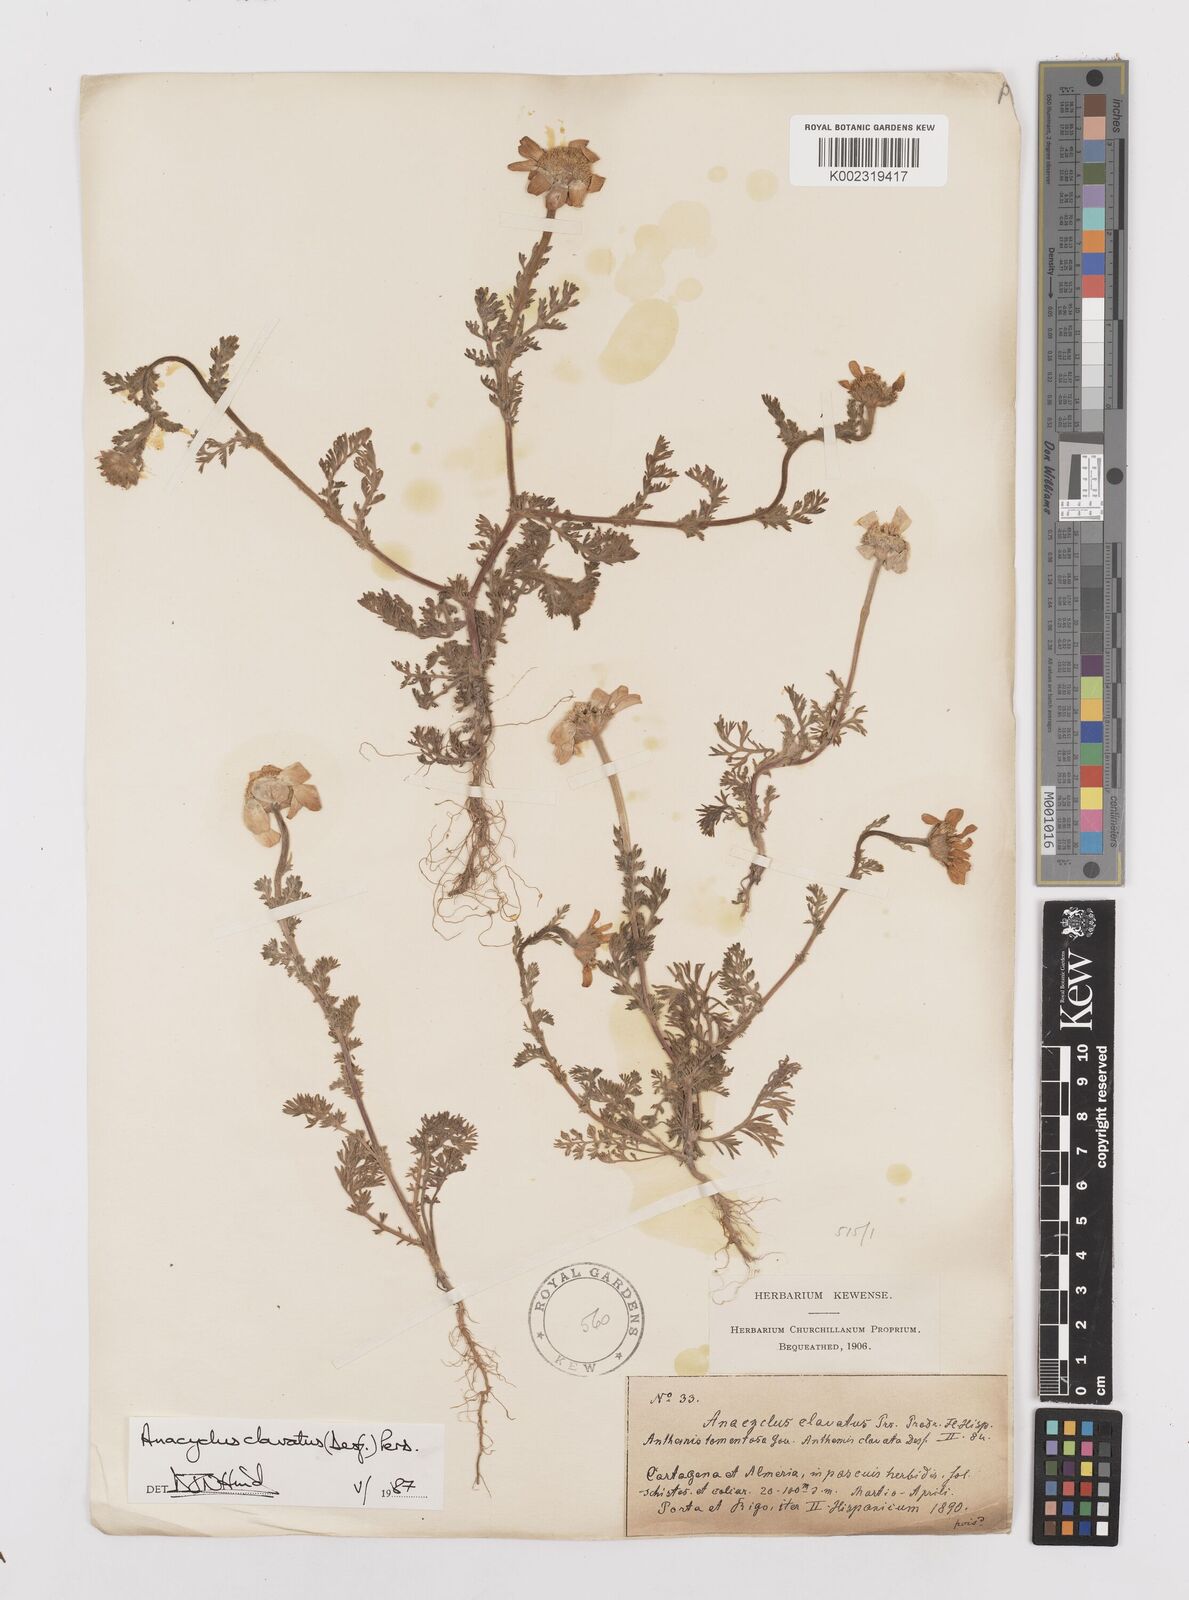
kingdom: Plantae
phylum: Tracheophyta
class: Magnoliopsida
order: Asterales
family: Asteraceae
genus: Anacyclus
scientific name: Anacyclus clavatus
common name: Whitebuttons
